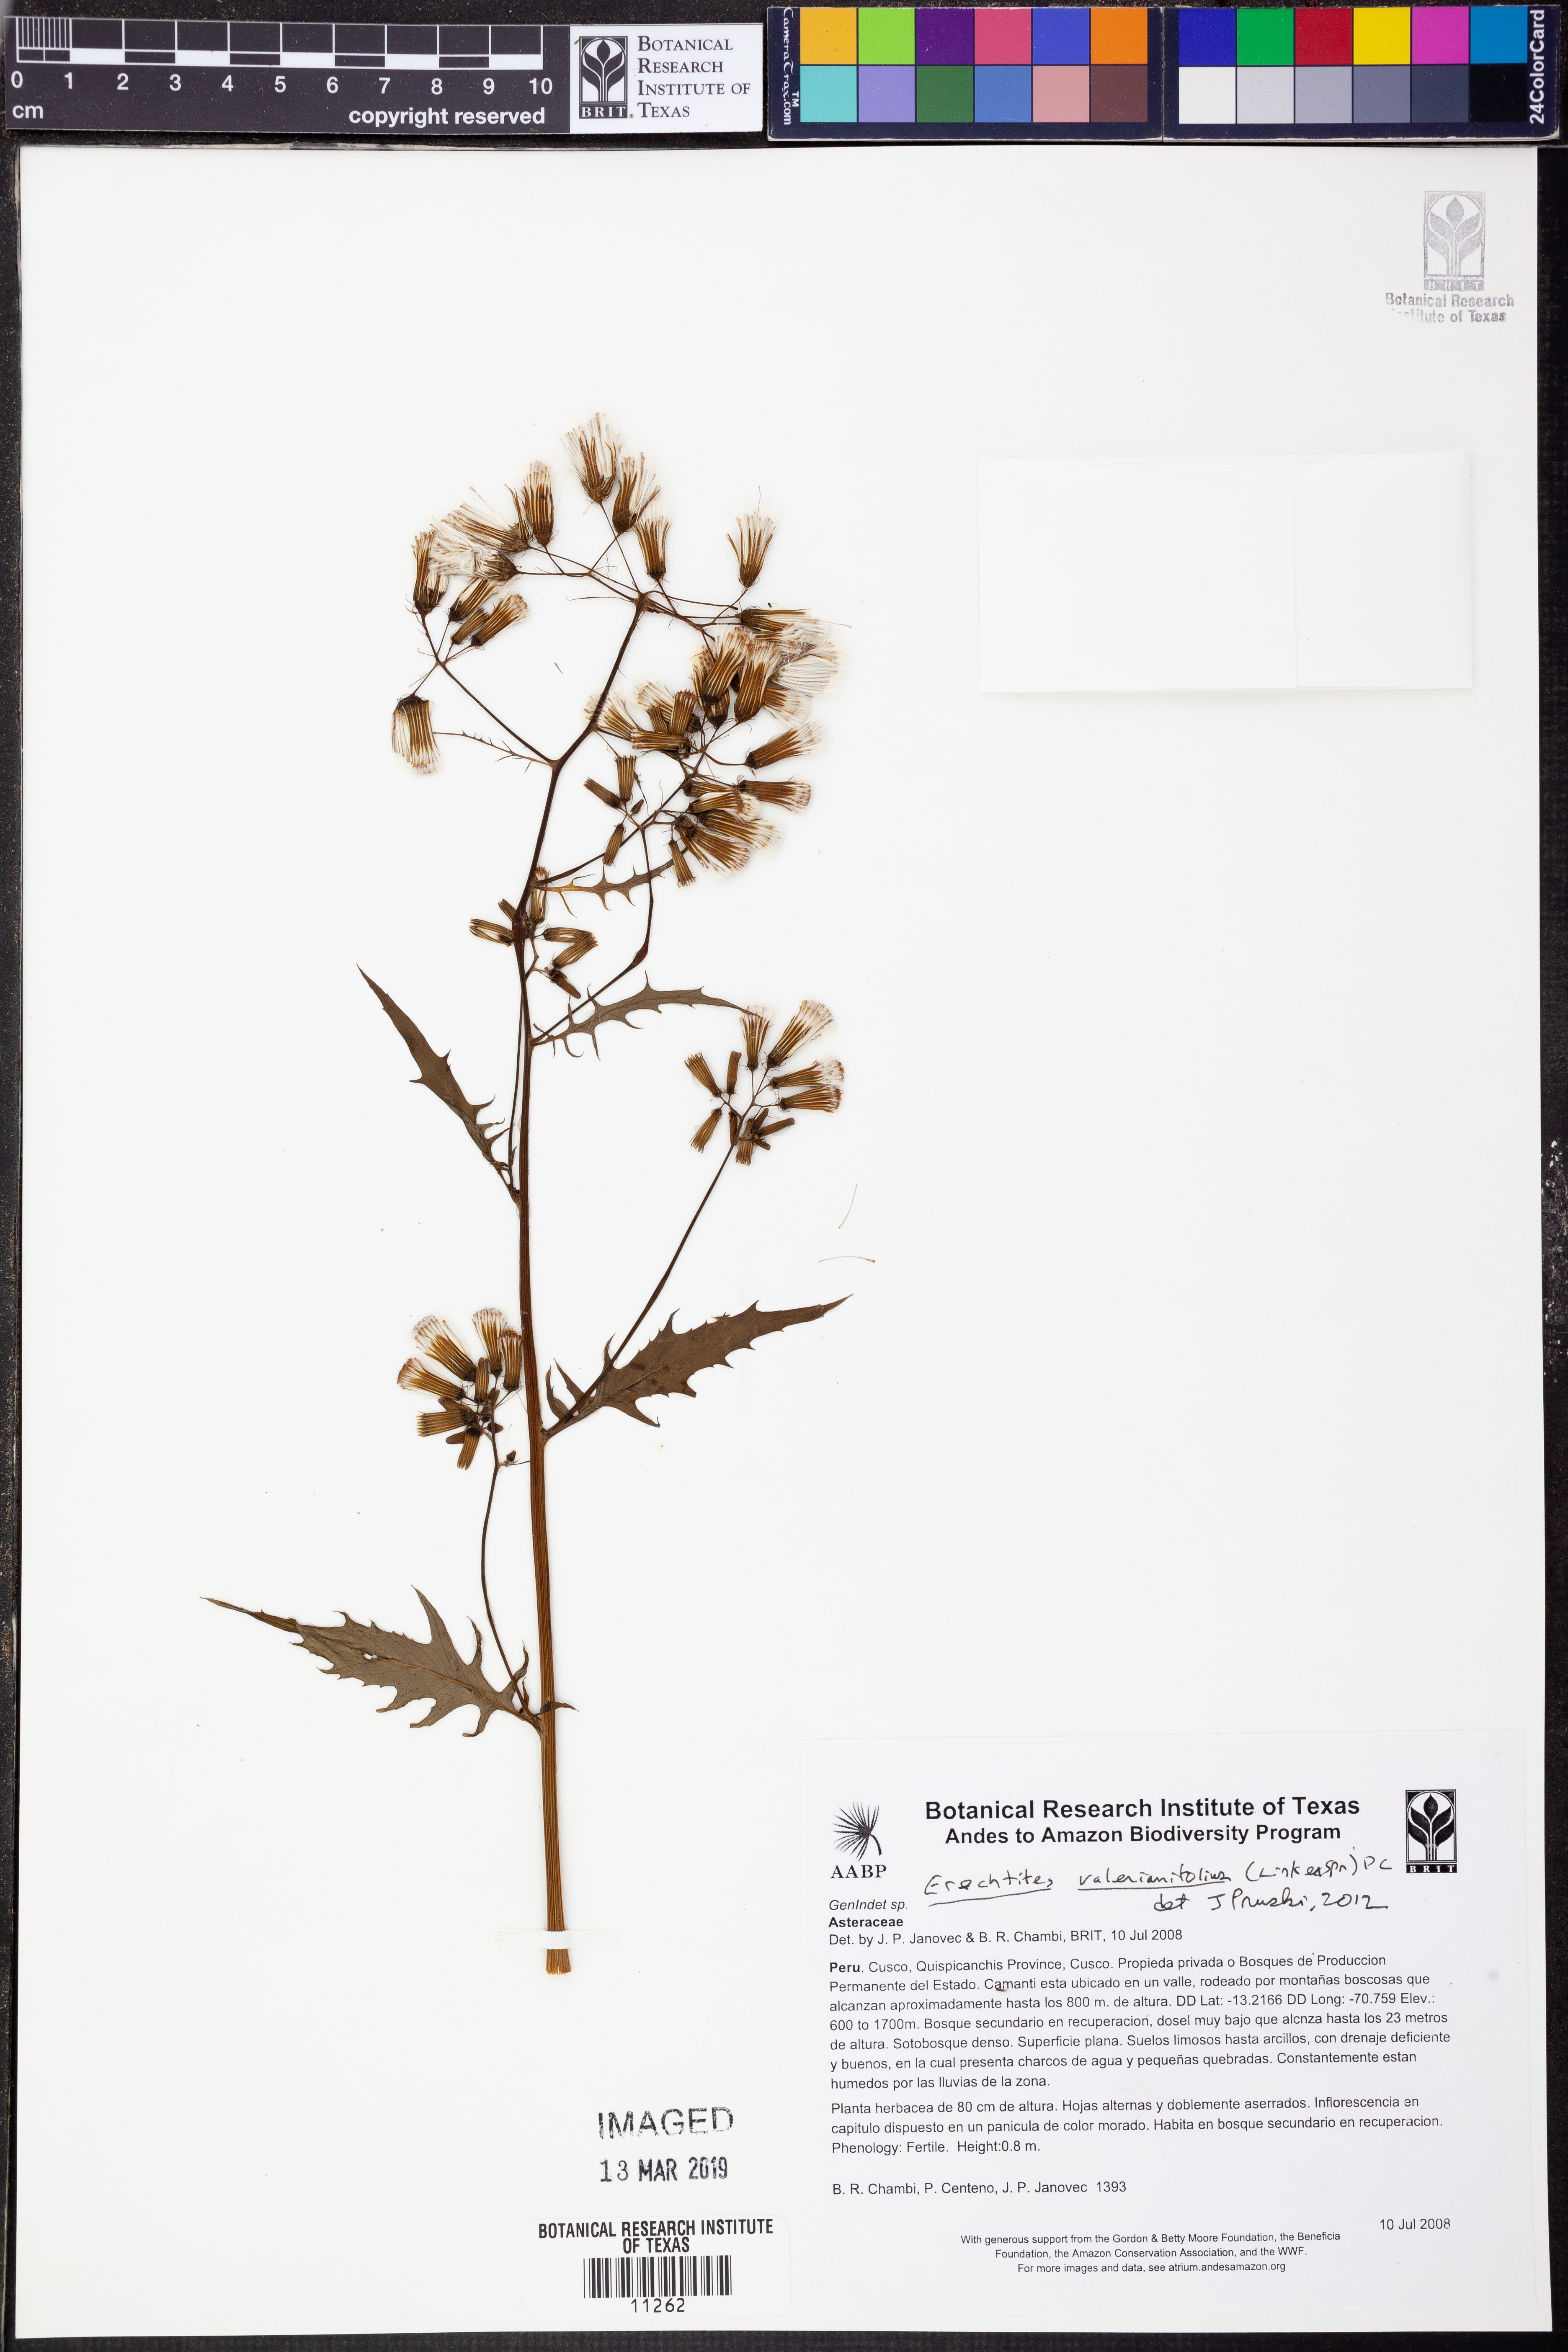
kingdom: Plantae
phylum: Tracheophyta
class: Magnoliopsida
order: Asterales
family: Asteraceae
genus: Erechtites
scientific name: Erechtites valerianifolius
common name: Tropical burnweed
